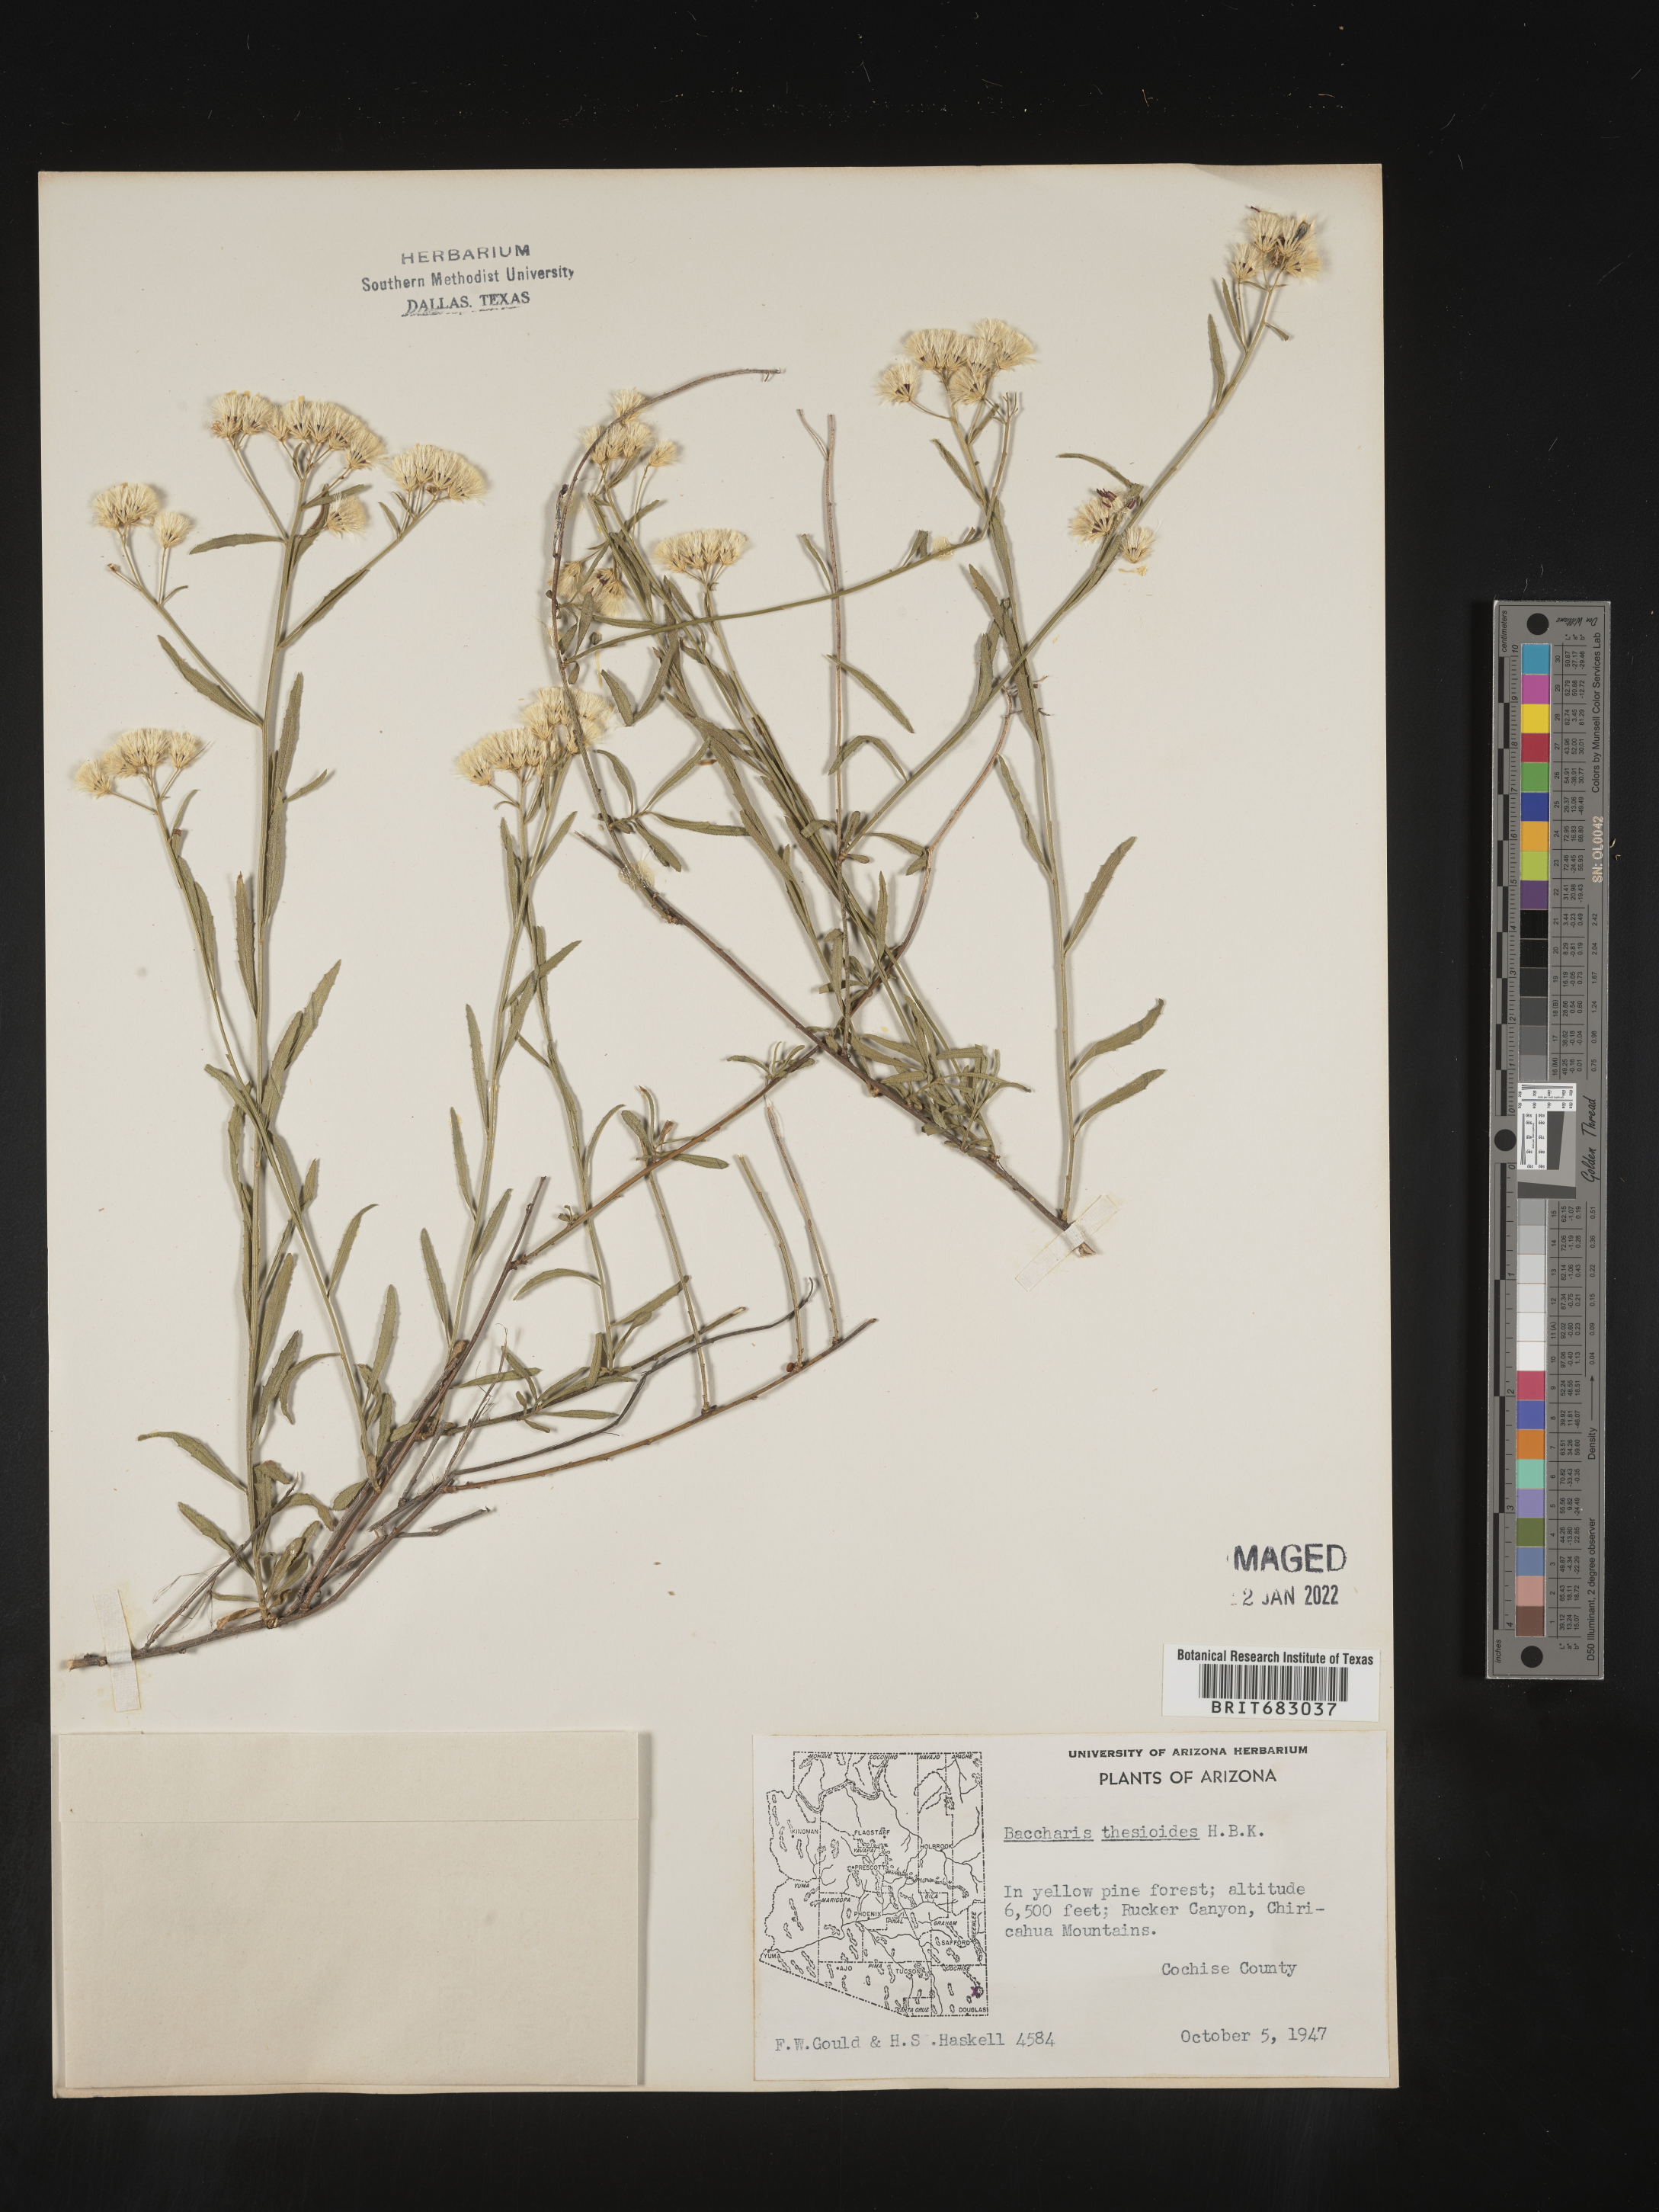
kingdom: Plantae
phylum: Tracheophyta
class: Magnoliopsida
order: Asterales
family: Asteraceae
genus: Baccharis
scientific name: Baccharis thesioides
